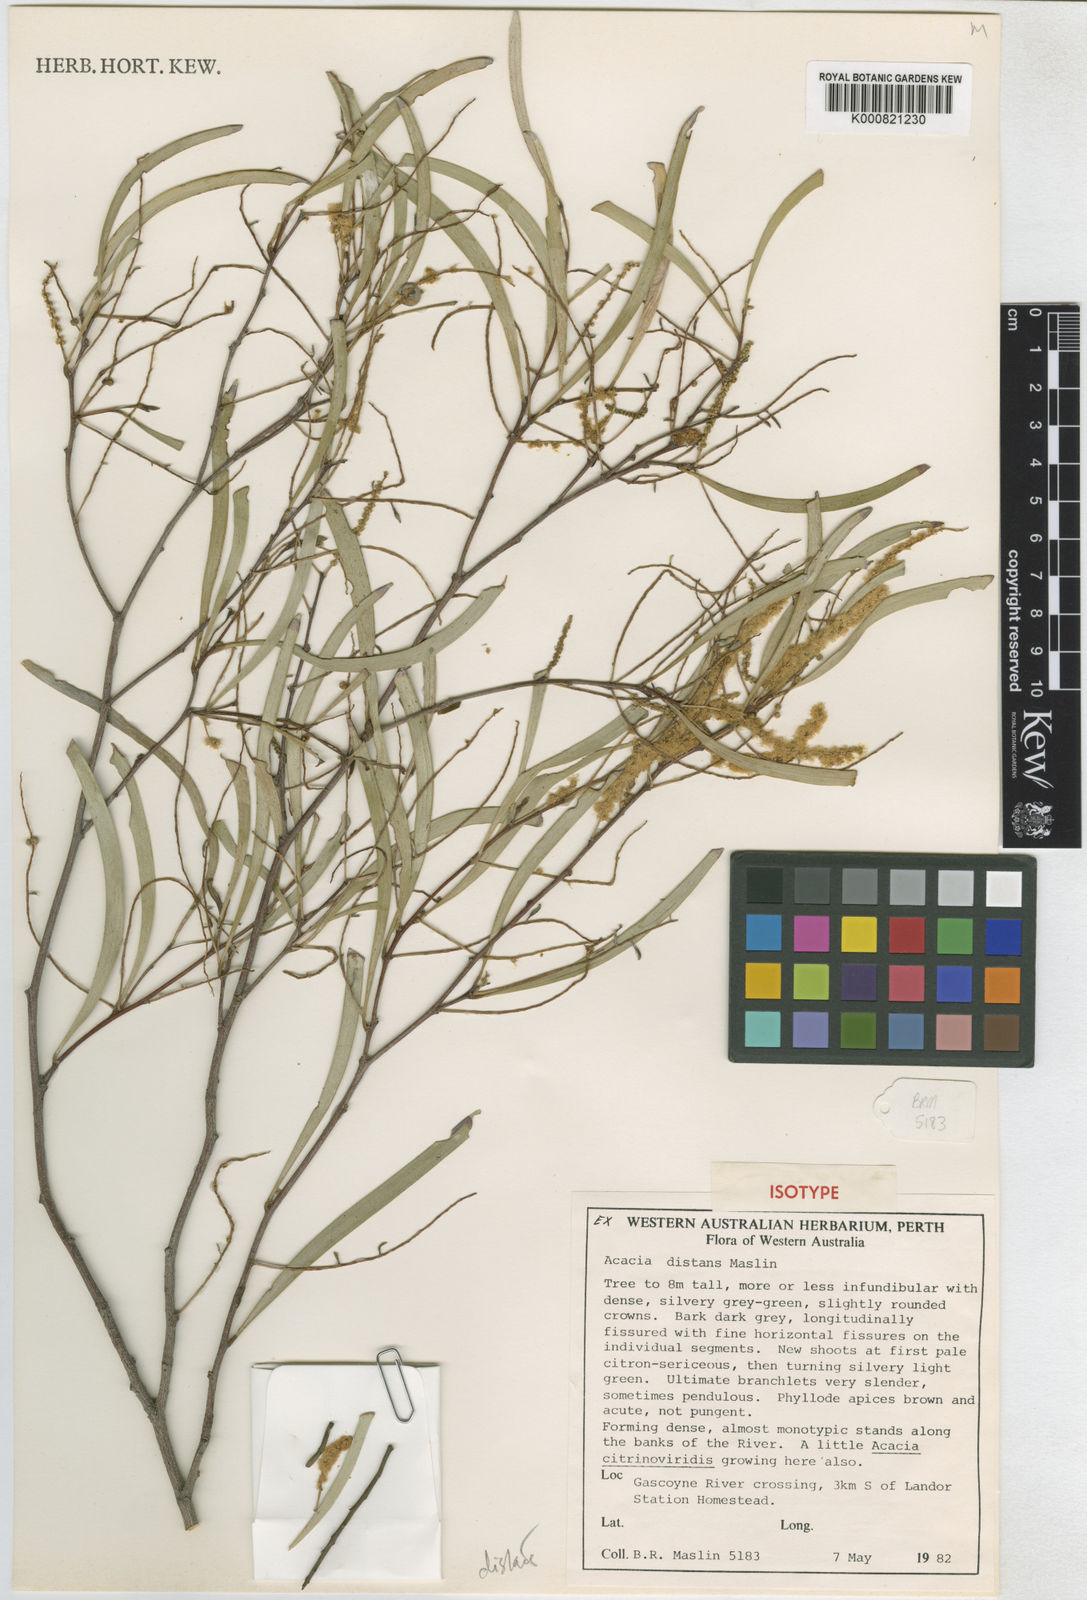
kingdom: Plantae
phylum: Tracheophyta
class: Magnoliopsida
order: Fabales
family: Fabaceae
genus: Acacia
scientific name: Acacia distans
